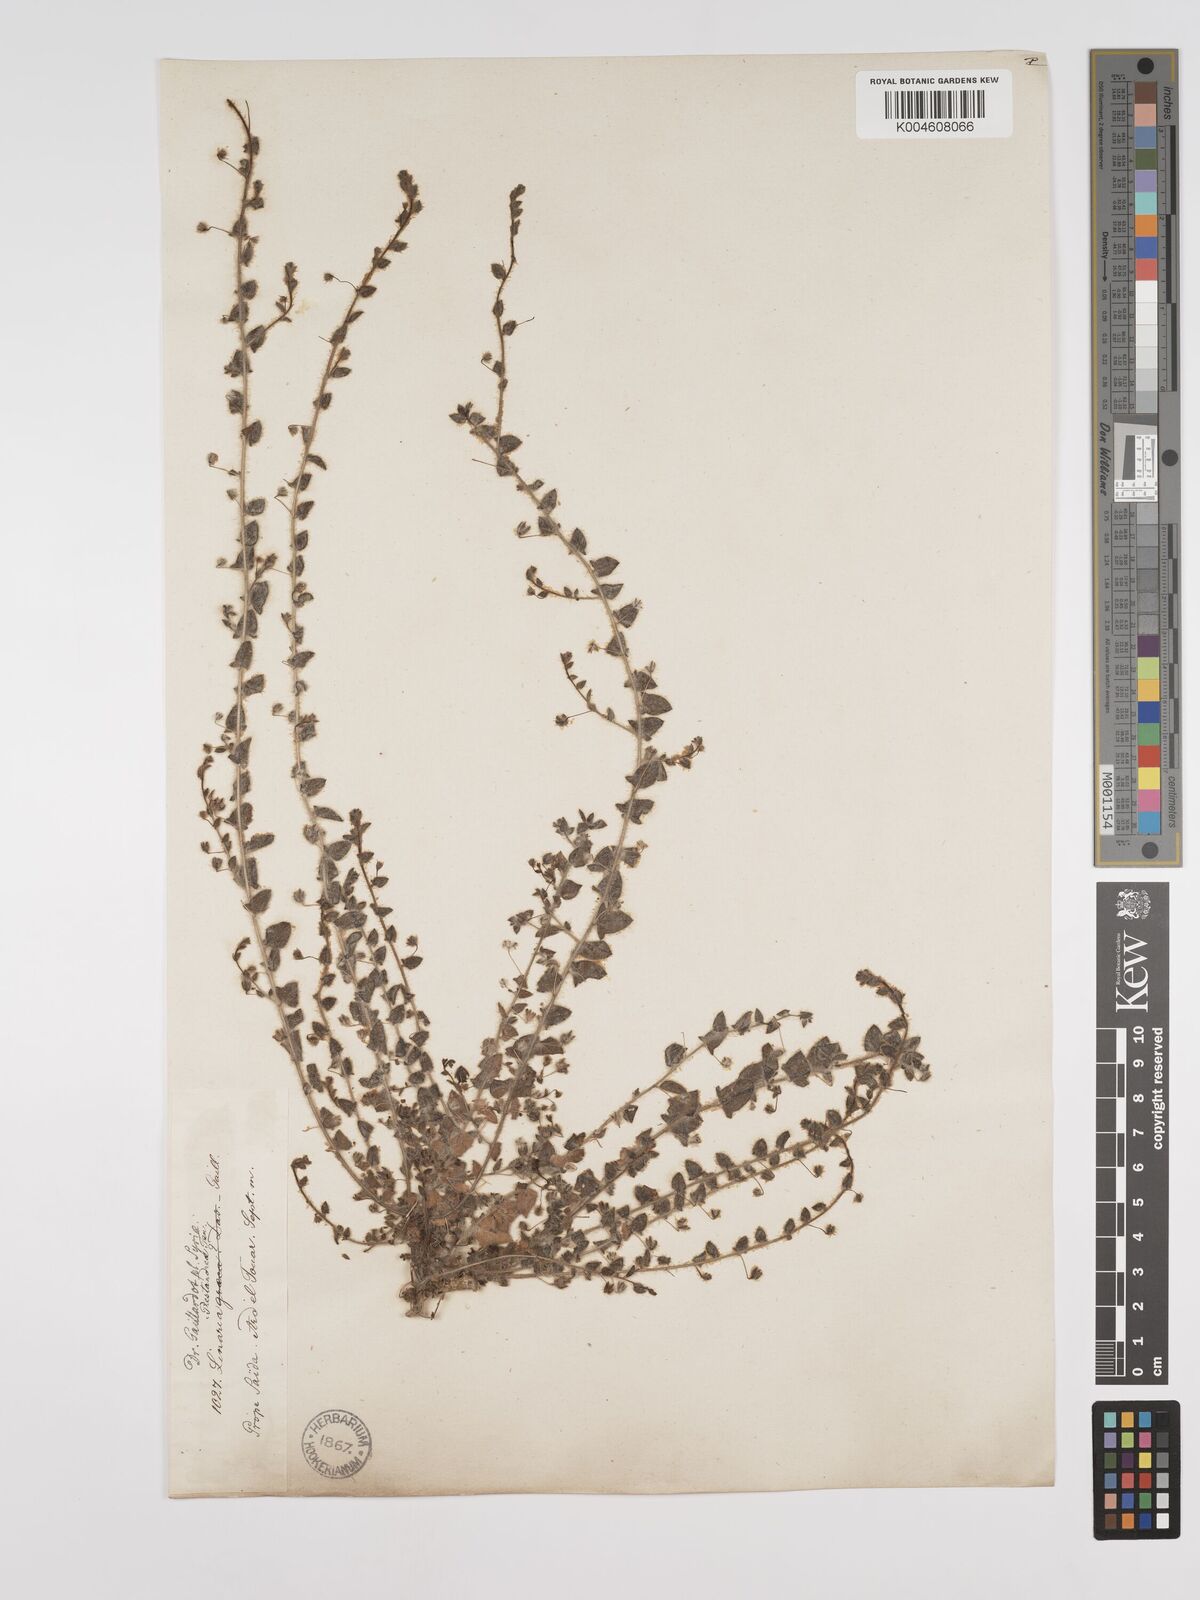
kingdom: Plantae
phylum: Tracheophyta
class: Magnoliopsida
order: Lamiales
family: Plantaginaceae
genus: Kickxia
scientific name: Kickxia elatine
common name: Sharp-leaved fluellen
